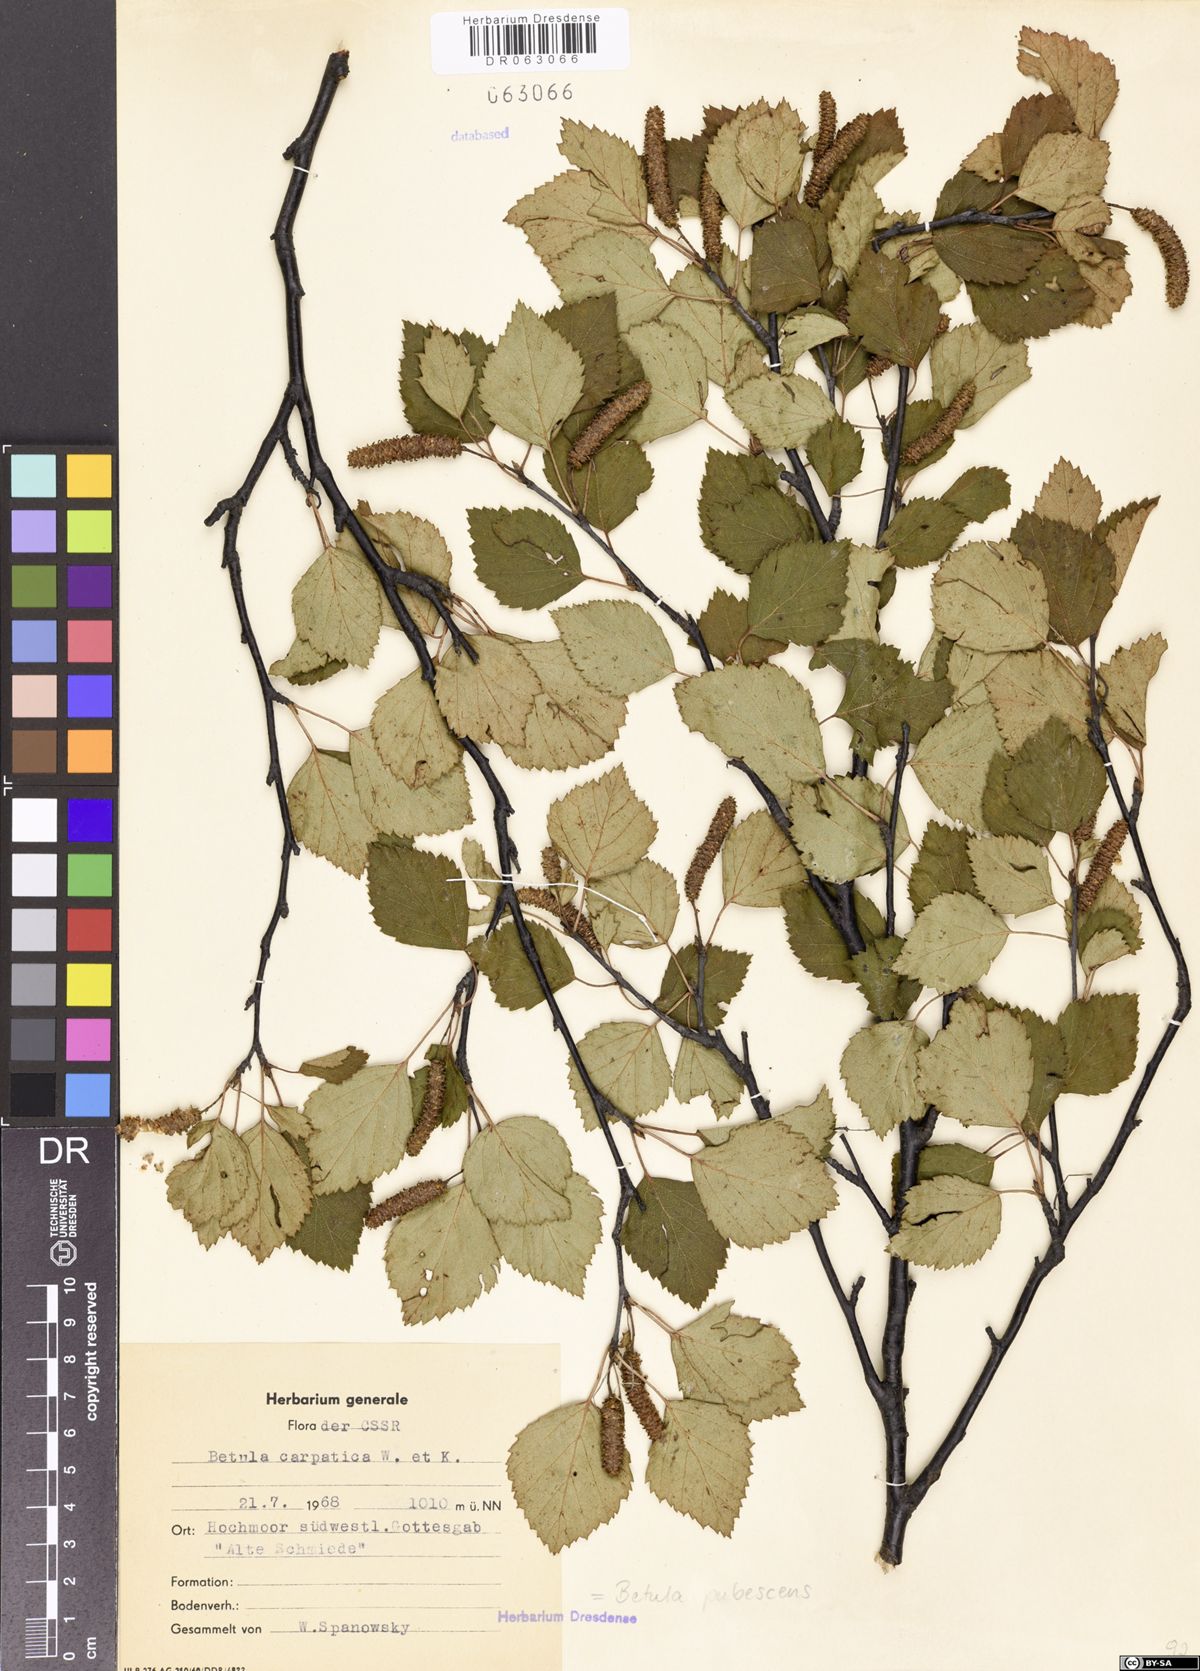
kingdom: Plantae
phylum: Tracheophyta
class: Magnoliopsida
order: Fagales
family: Betulaceae
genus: Betula
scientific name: Betula pubescens
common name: Downy birch
